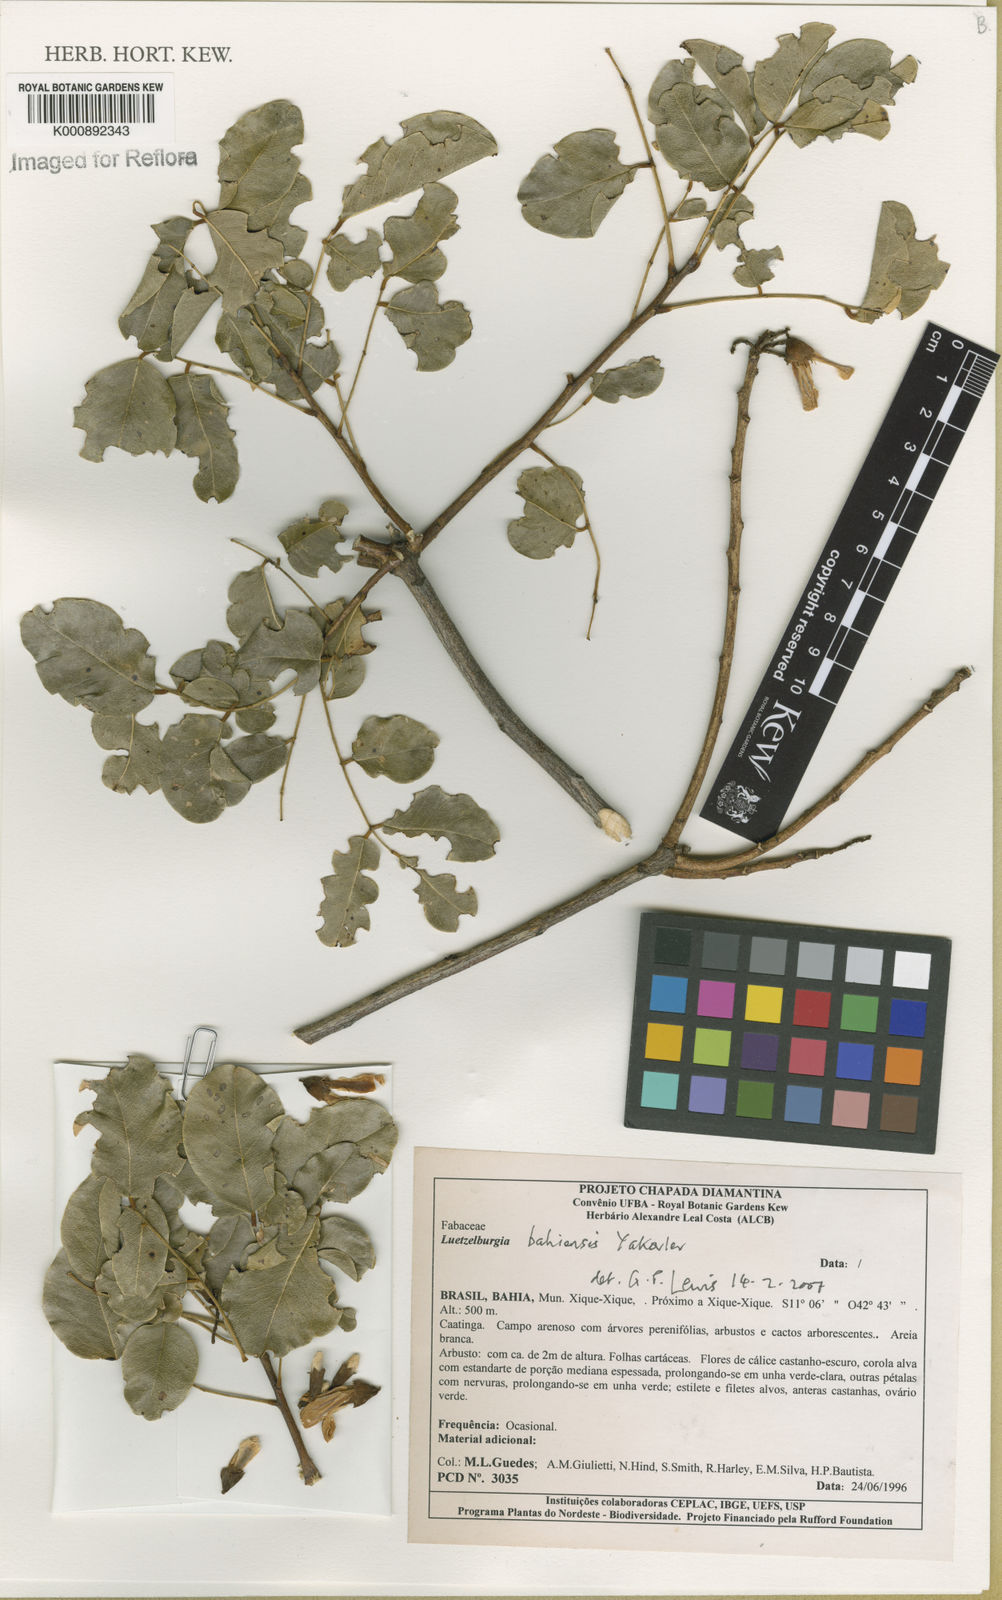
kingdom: Plantae
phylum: Tracheophyta
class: Magnoliopsida
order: Fabales
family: Fabaceae
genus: Luetzelburgia
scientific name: Luetzelburgia bahiensis
